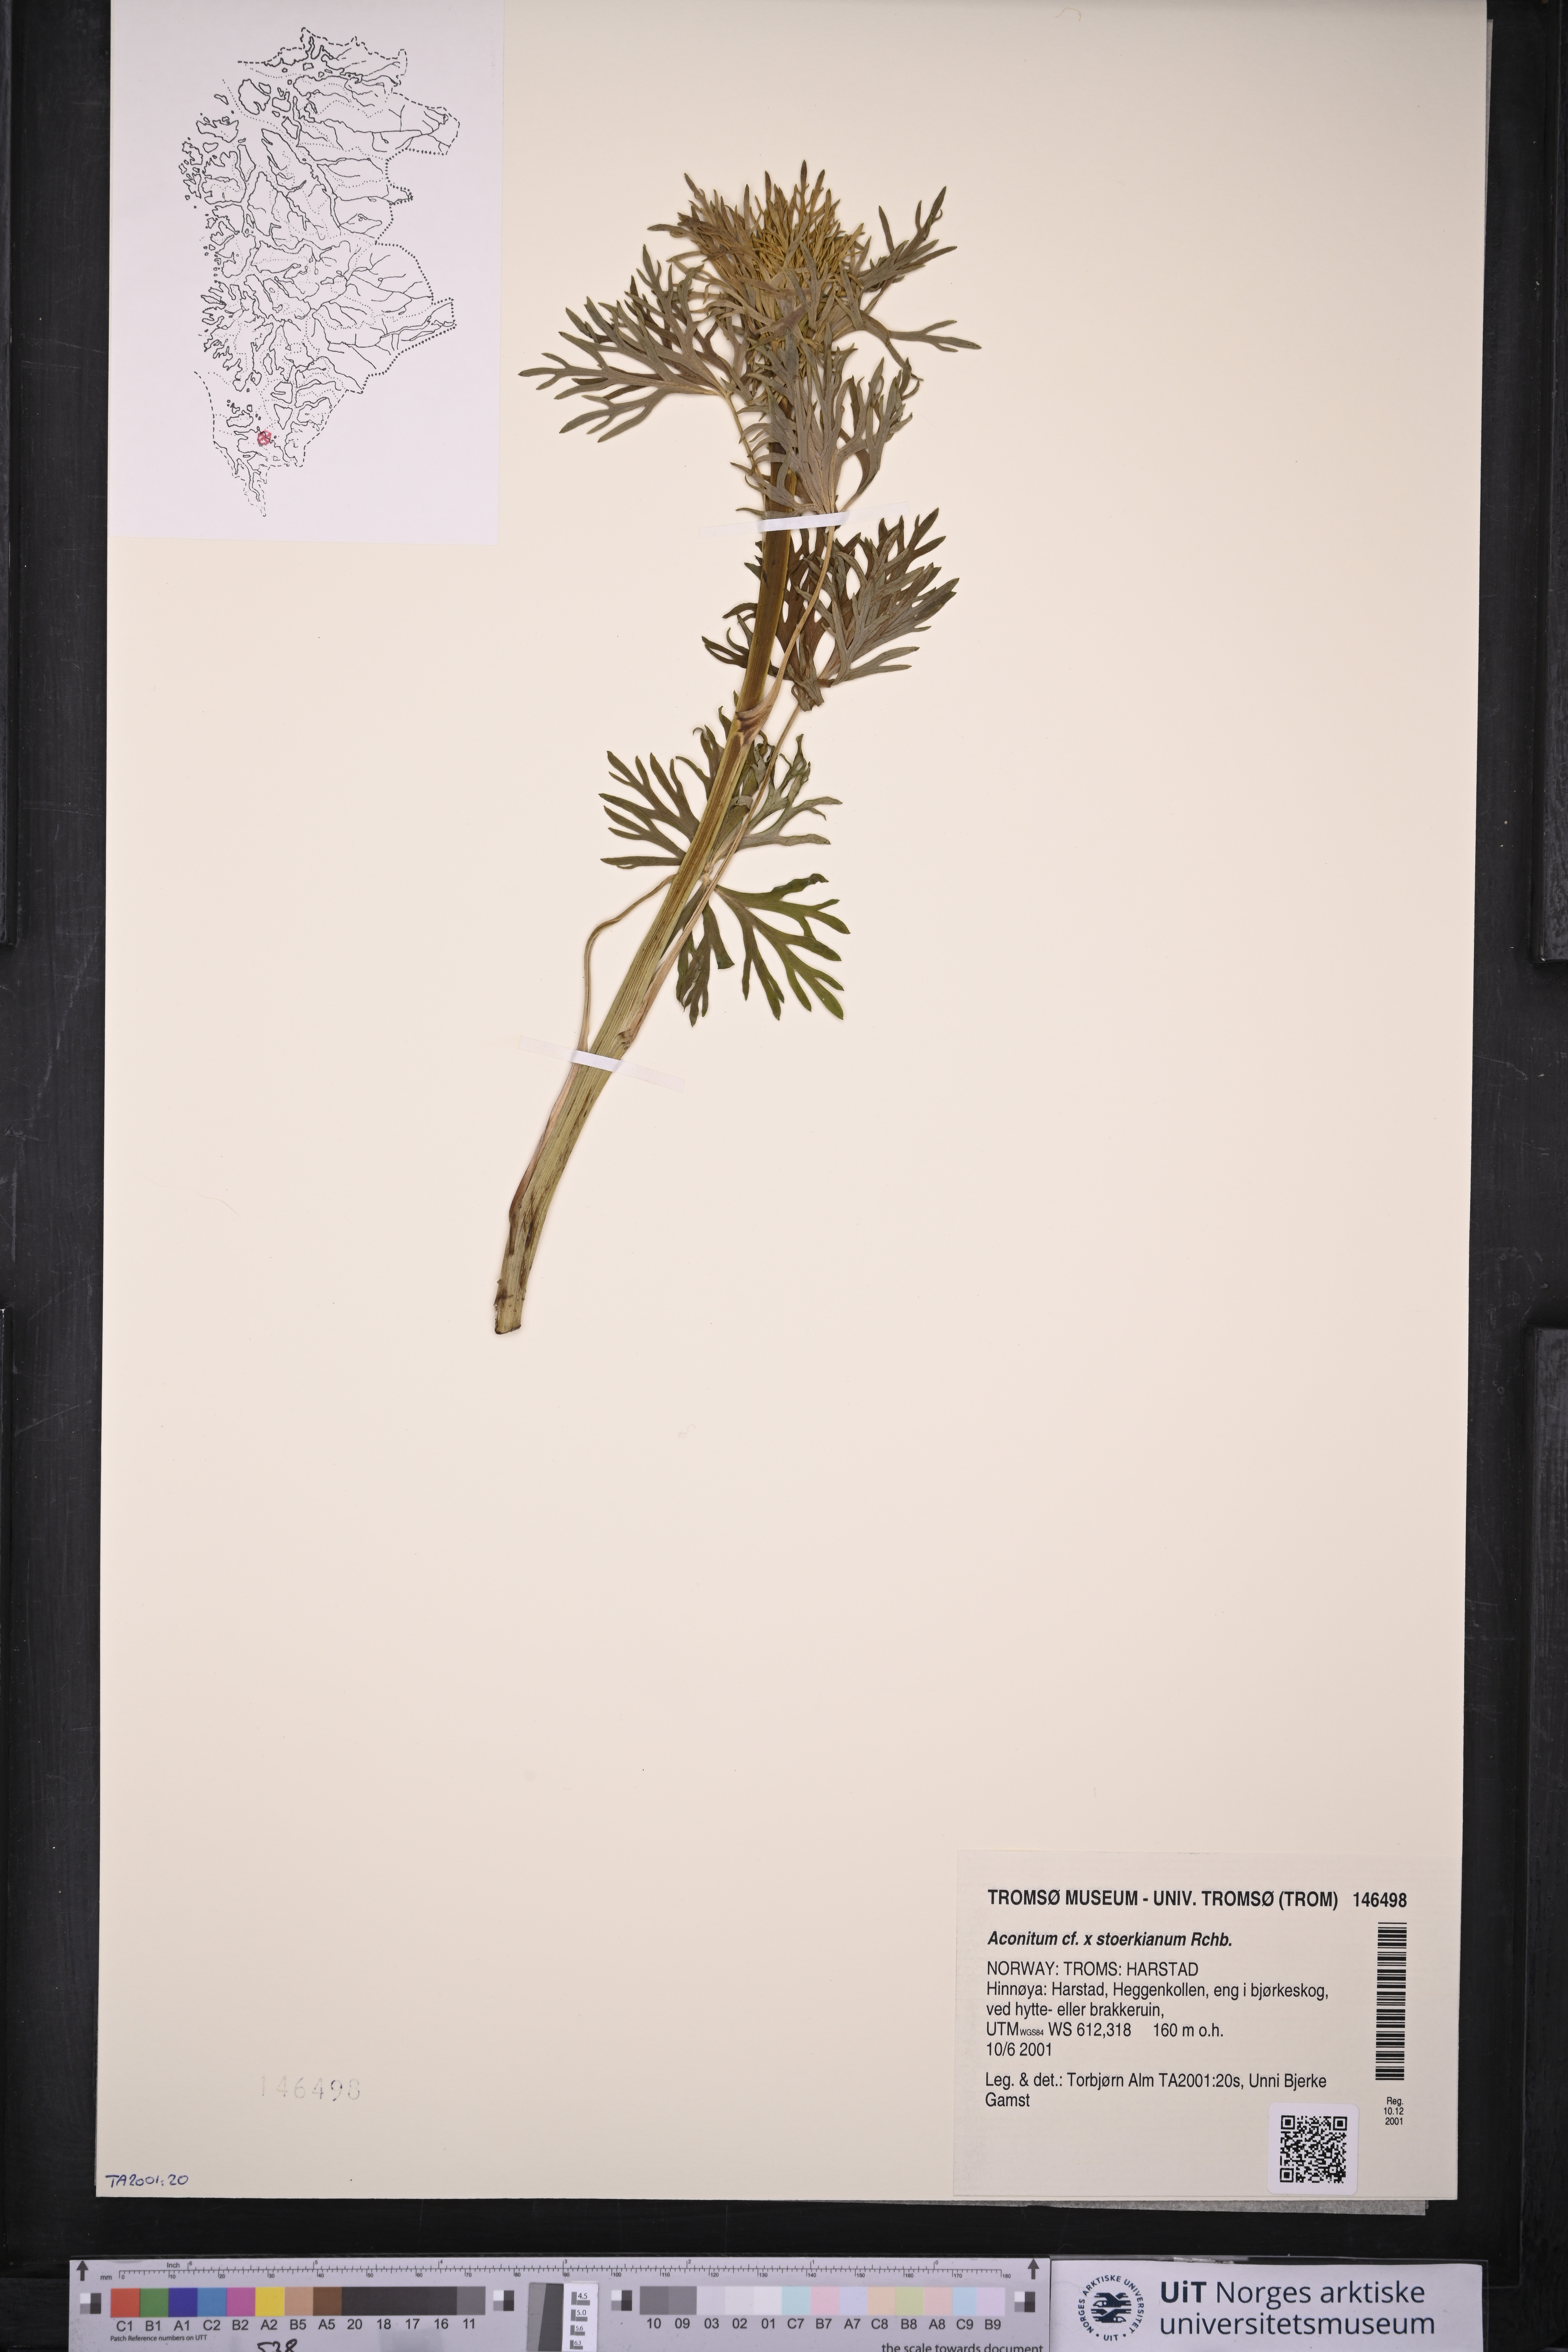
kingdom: Plantae
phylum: Tracheophyta
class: Magnoliopsida
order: Ranunculales
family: Ranunculaceae
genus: Aconitum
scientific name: Aconitum cammarum
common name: Hybrid monk's-hood
